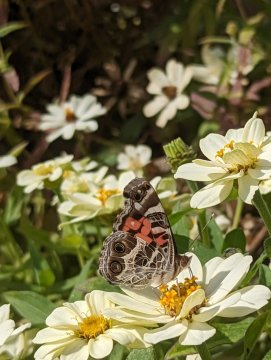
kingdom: Animalia
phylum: Arthropoda
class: Insecta
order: Lepidoptera
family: Nymphalidae
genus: Vanessa
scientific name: Vanessa virginiensis
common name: American Lady
